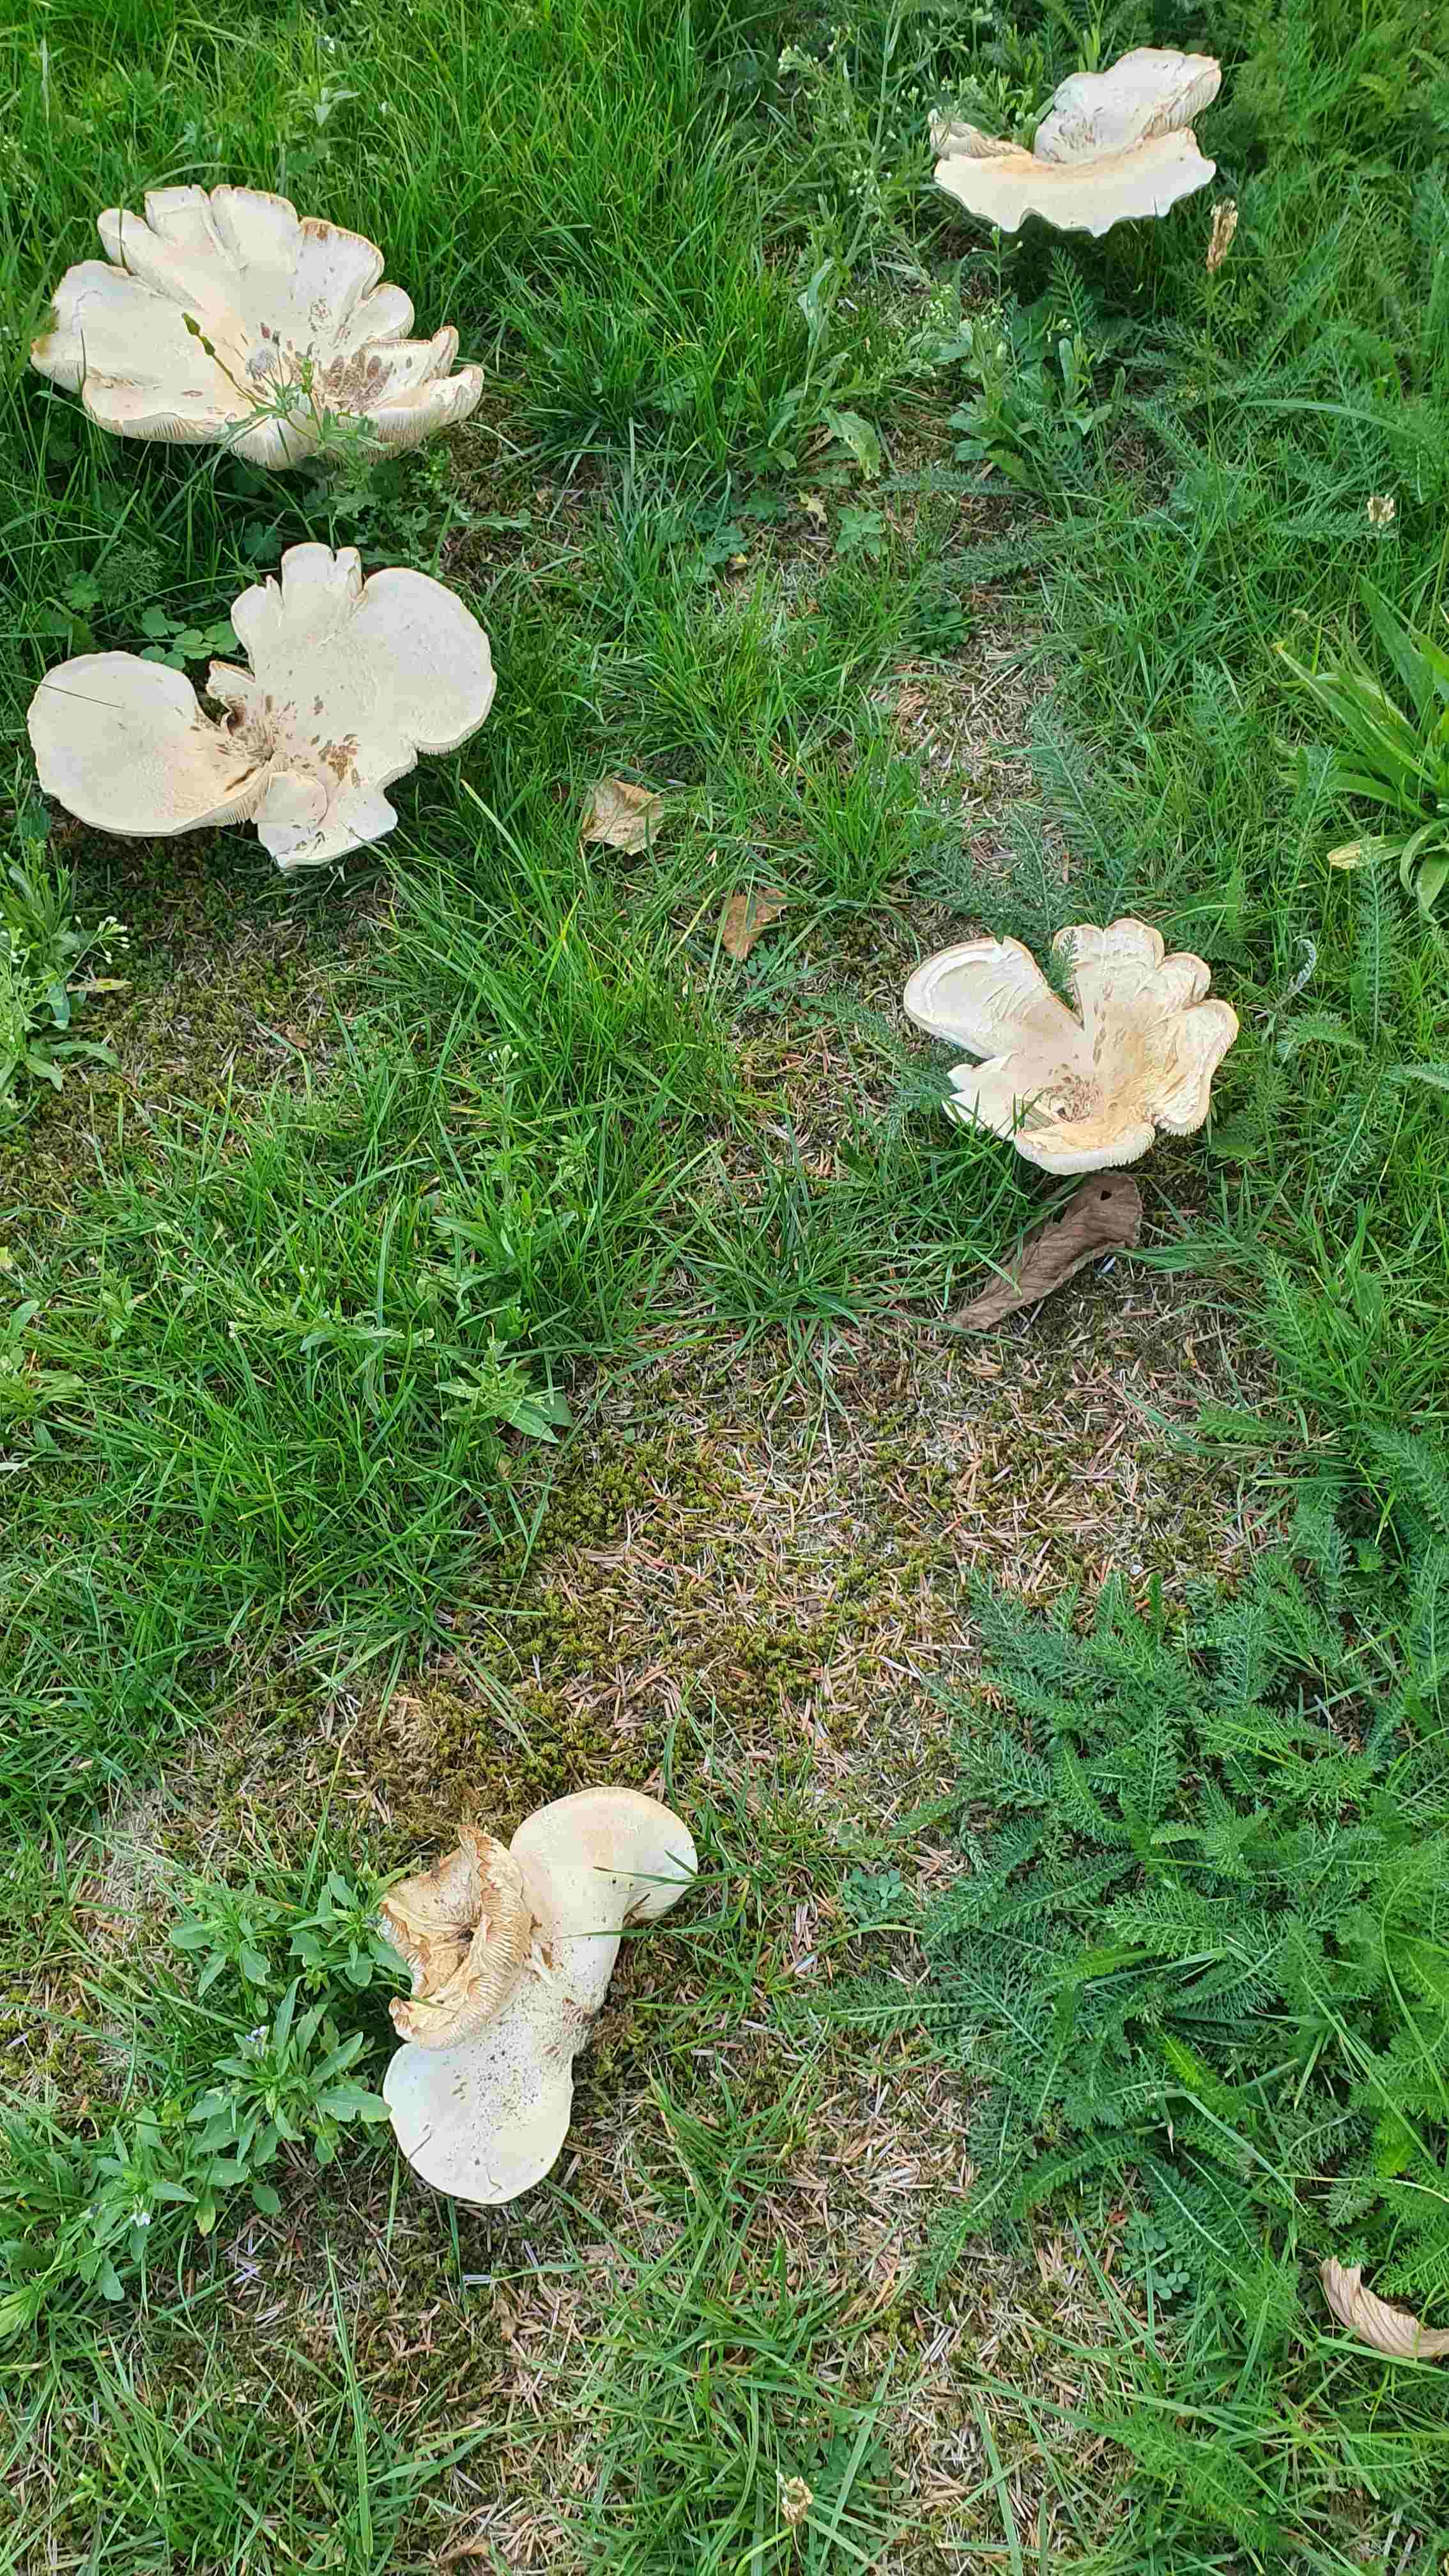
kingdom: Fungi
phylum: Basidiomycota
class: Agaricomycetes
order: Agaricales
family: Tricholomataceae
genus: Aspropaxillus
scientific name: Aspropaxillus giganteus
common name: kæmpe-tragtridderhat
